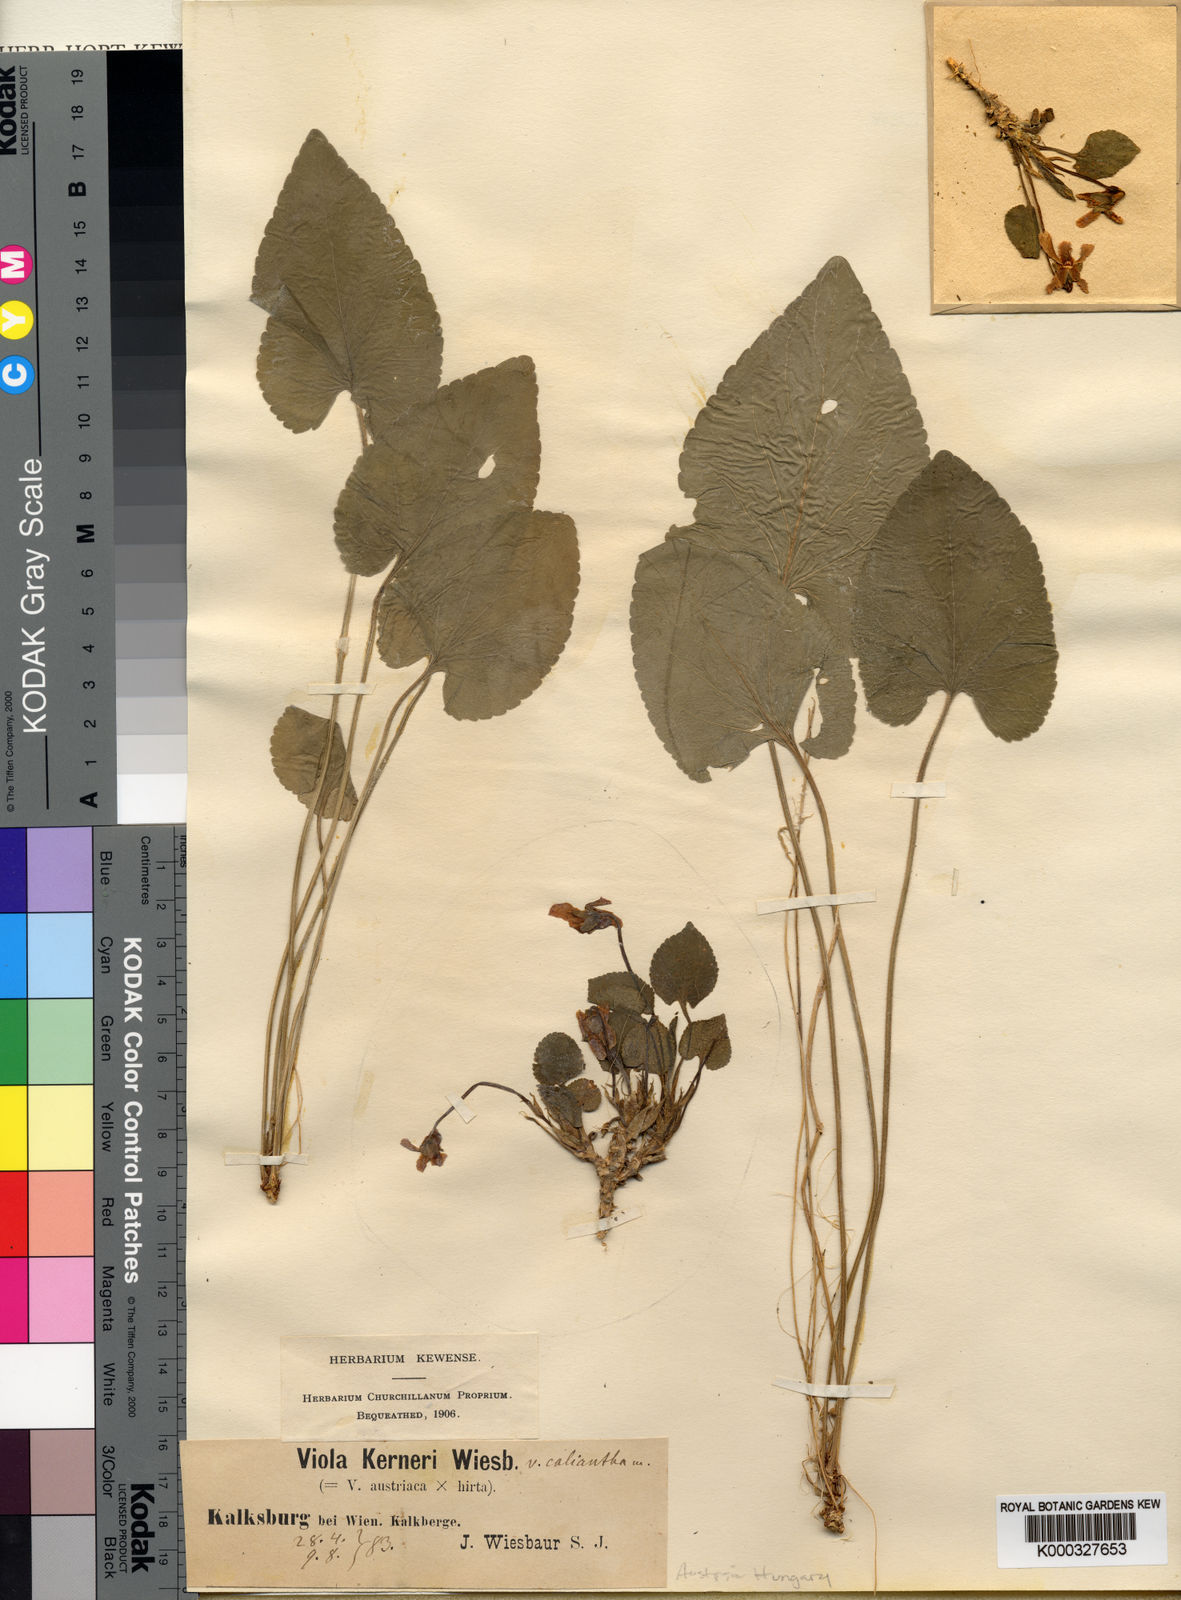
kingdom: Plantae
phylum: Tracheophyta
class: Magnoliopsida
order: Malpighiales
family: Violaceae
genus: Viola
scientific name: Viola hirta
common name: Hairy violet
